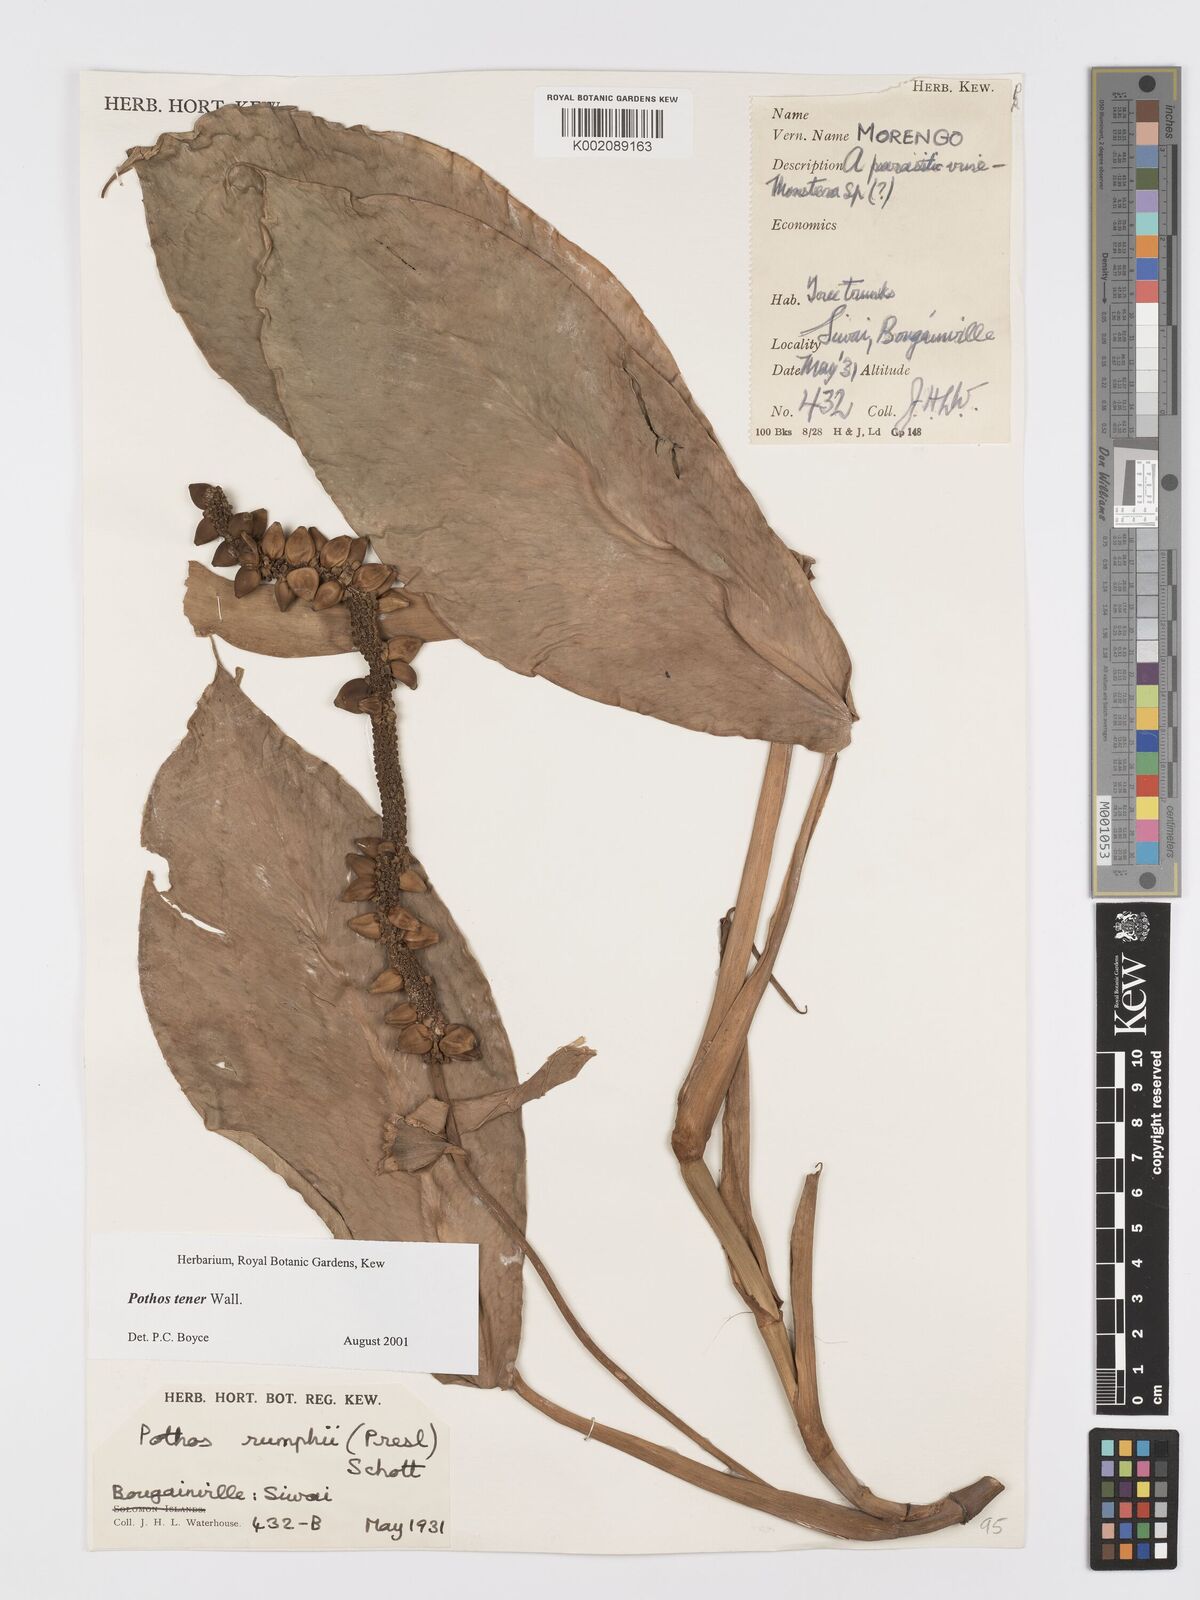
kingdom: Plantae
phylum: Tracheophyta
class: Liliopsida
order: Alismatales
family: Araceae
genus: Pothos
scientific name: Pothos tener
